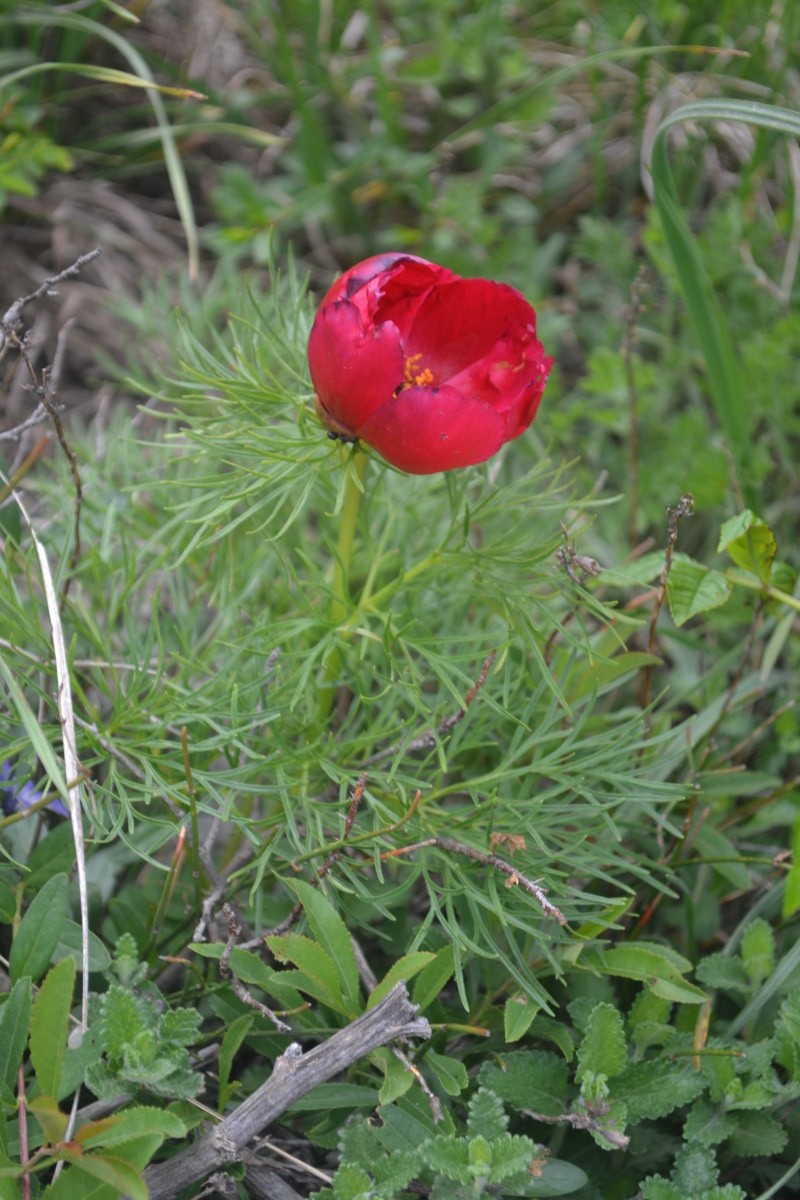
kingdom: Plantae
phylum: Tracheophyta
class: Magnoliopsida
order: Saxifragales
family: Paeoniaceae
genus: Paeonia
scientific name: Paeonia tenuifolia
